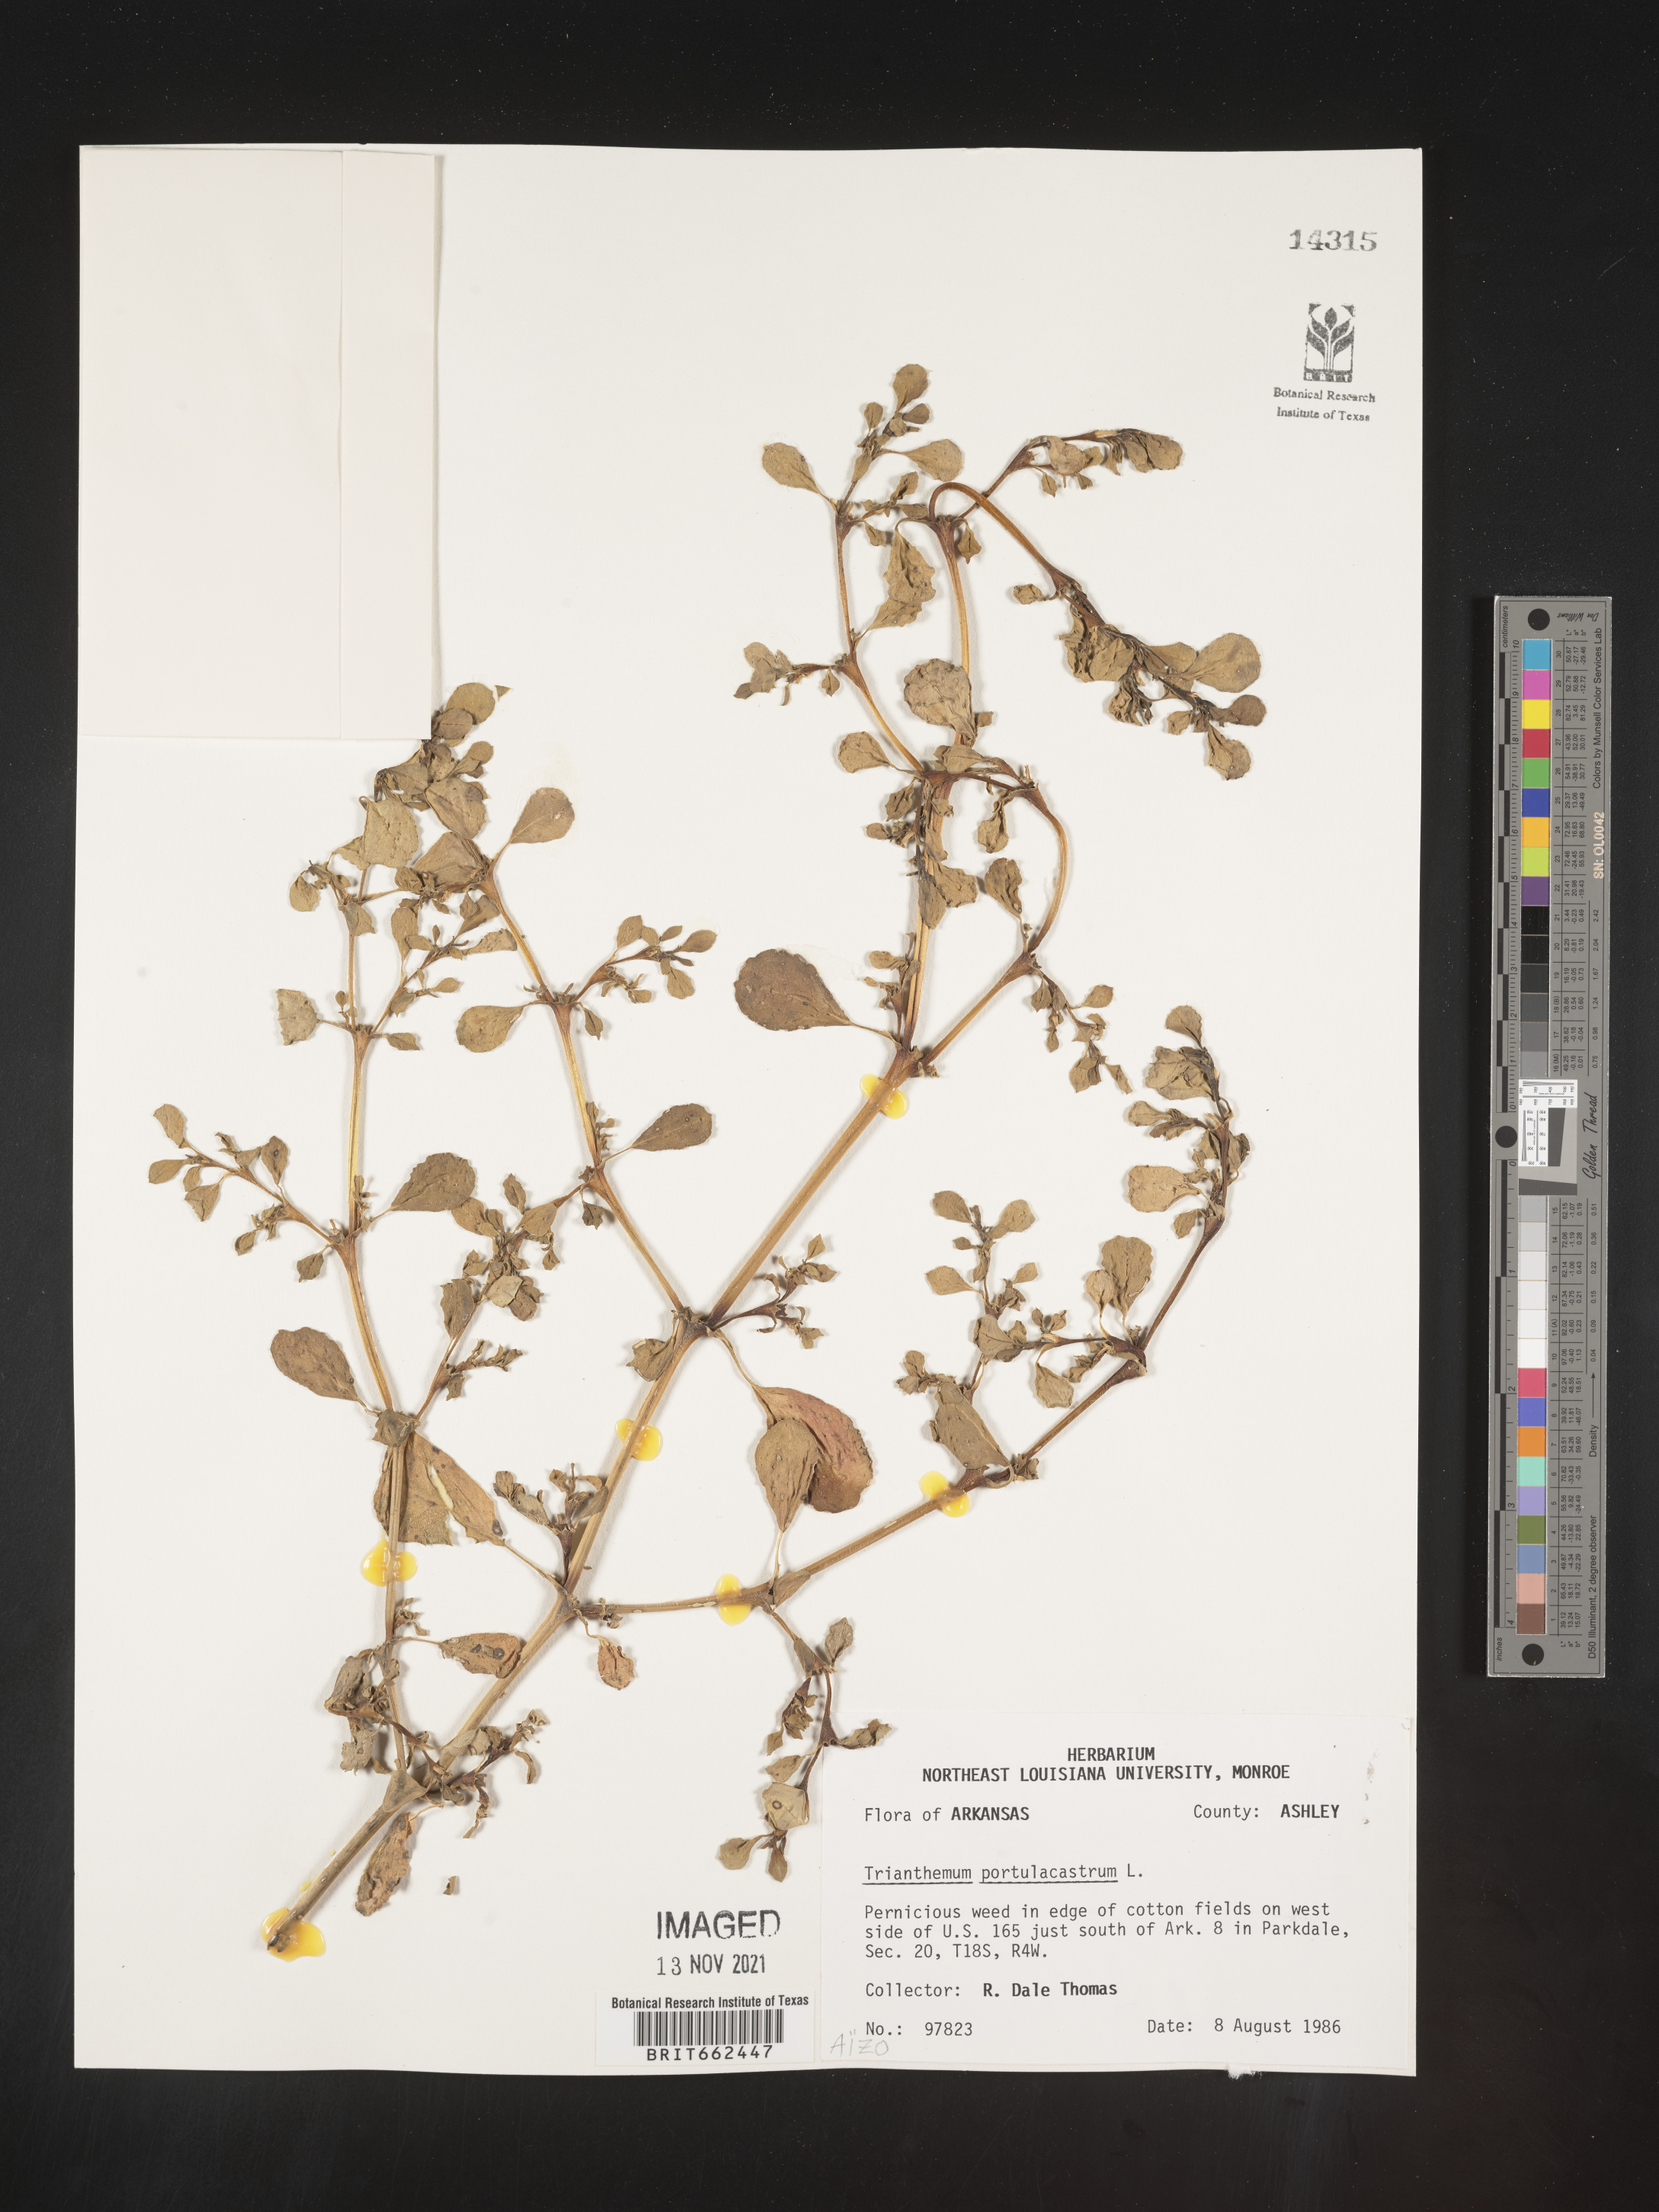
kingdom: Plantae
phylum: Tracheophyta
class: Magnoliopsida
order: Caryophyllales
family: Aizoaceae
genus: Trianthema
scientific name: Trianthema
